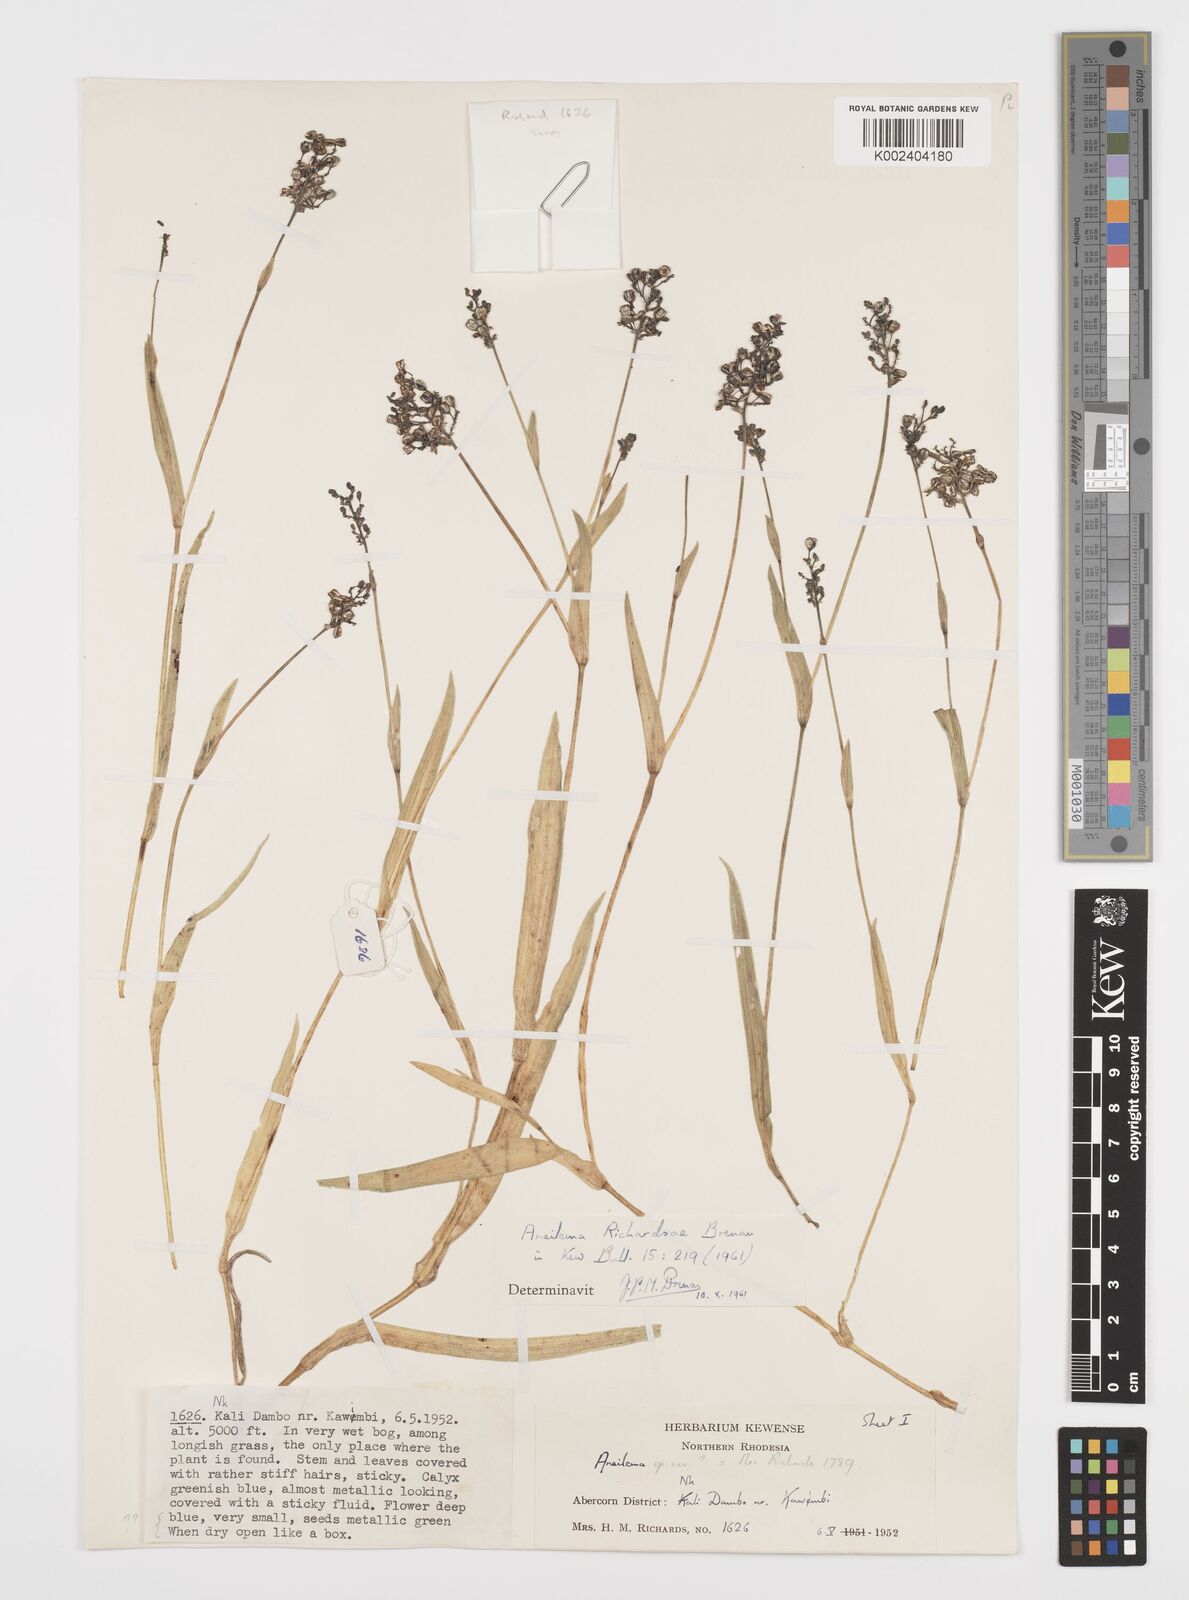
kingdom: Plantae
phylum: Tracheophyta
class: Liliopsida
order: Commelinales
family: Commelinaceae
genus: Aneilema
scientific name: Aneilema richardsiae
